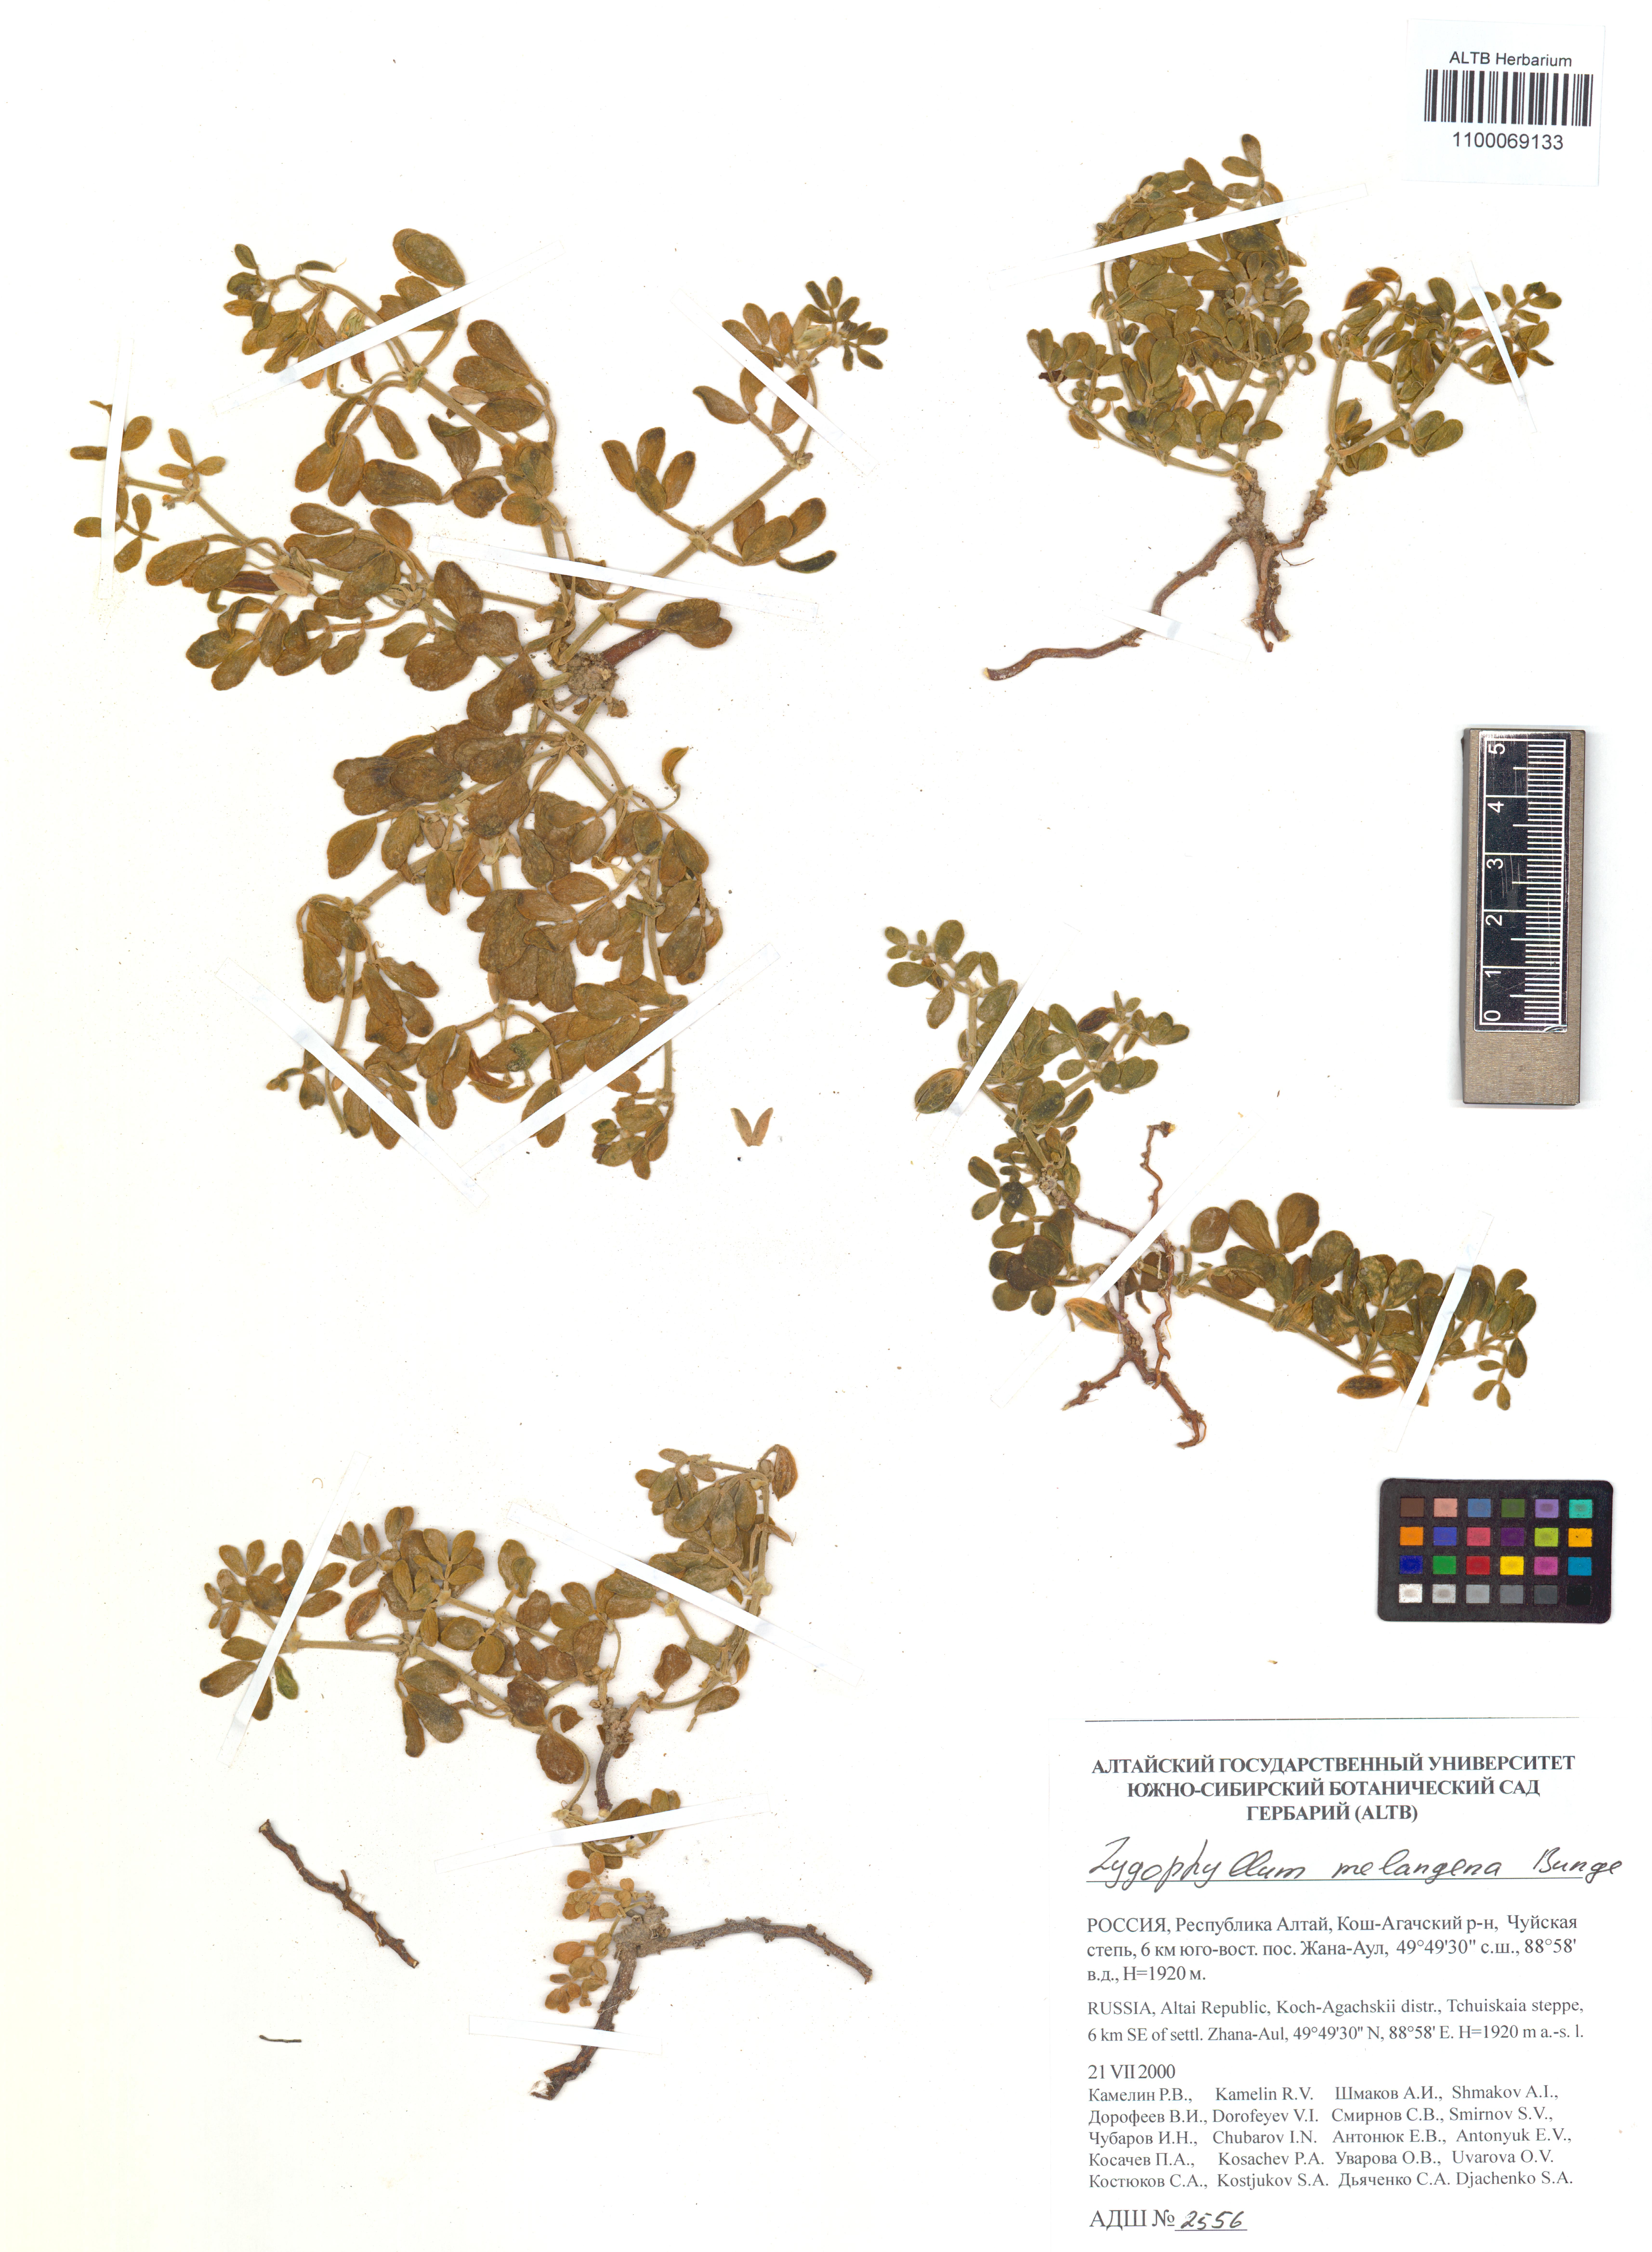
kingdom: Plantae
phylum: Tracheophyta
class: Magnoliopsida
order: Zygophyllales
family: Zygophyllaceae
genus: Zygophyllum
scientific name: Zygophyllum melongena
